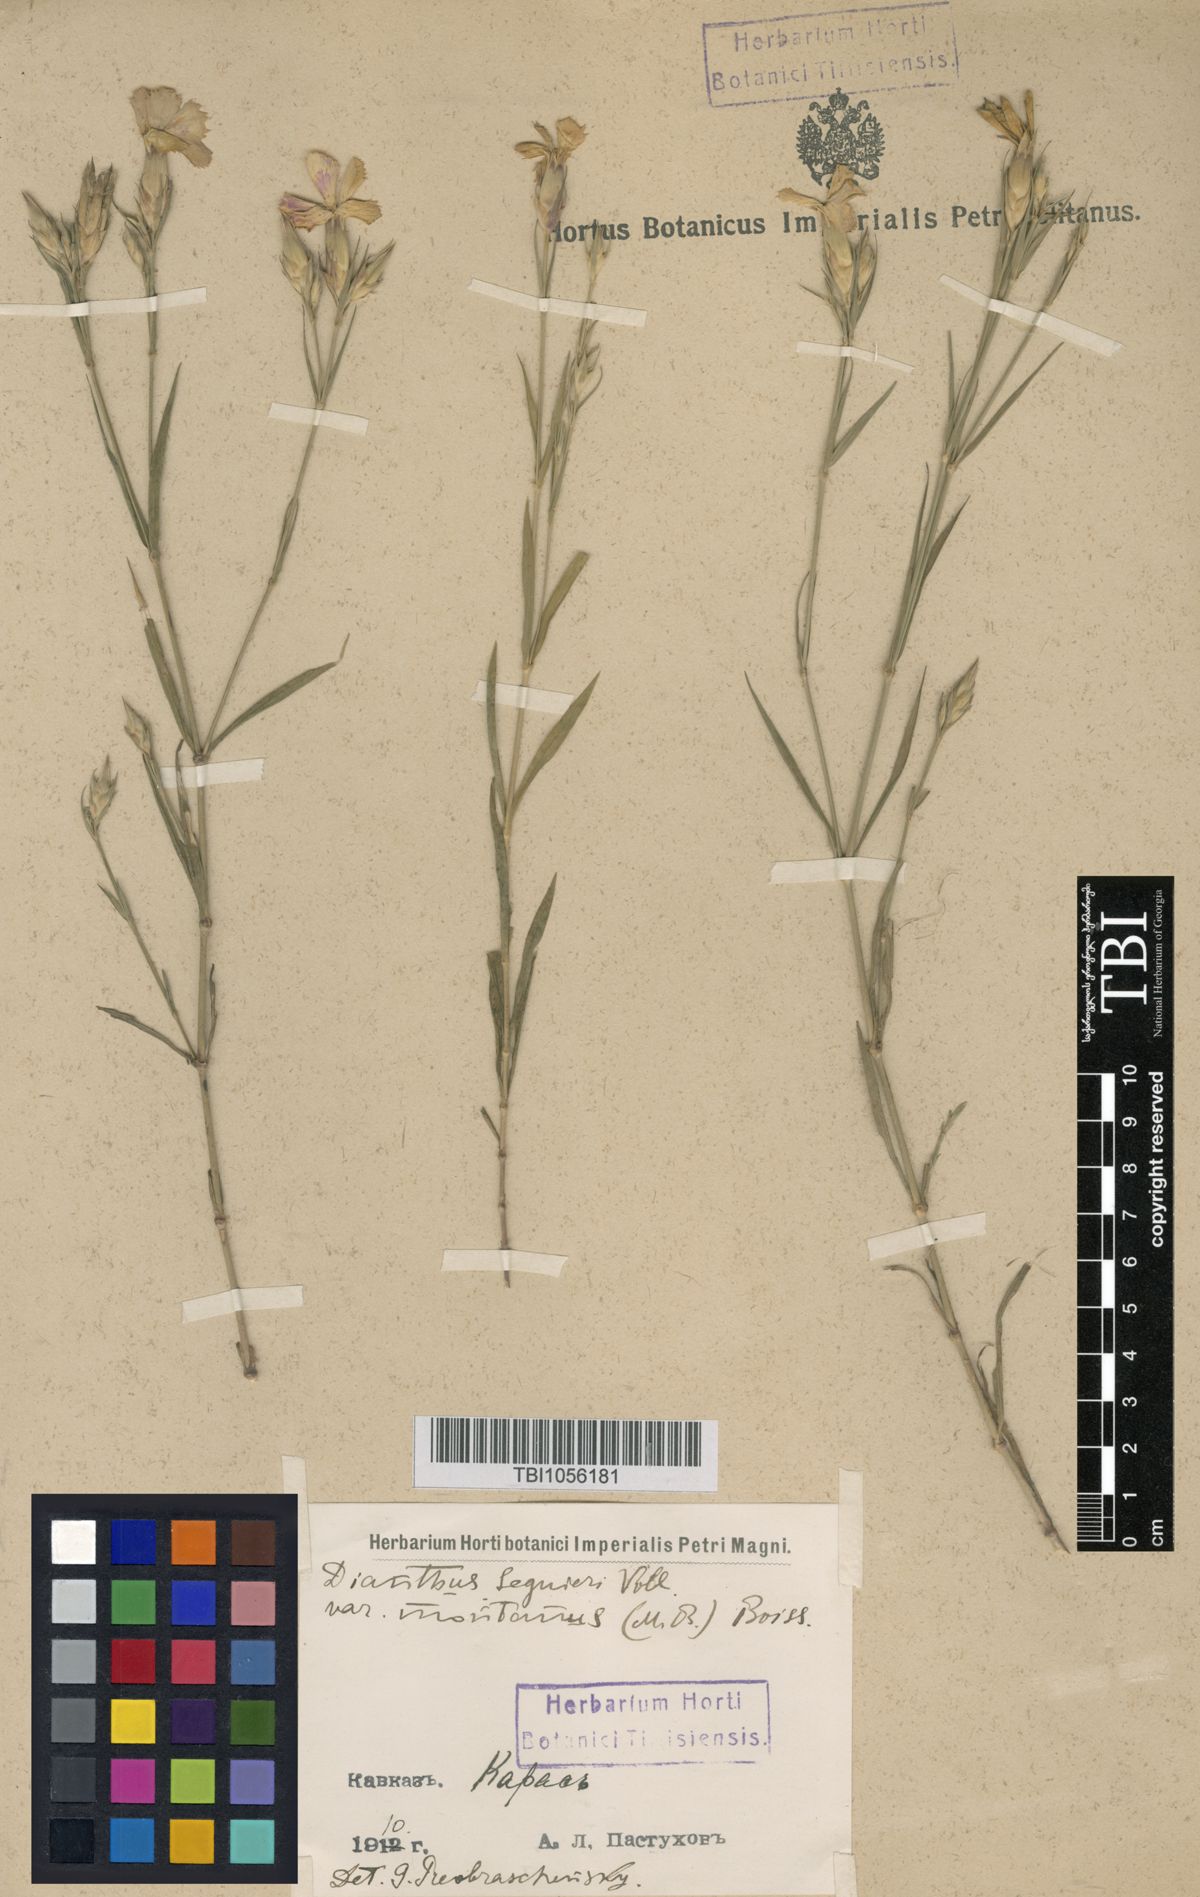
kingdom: Plantae
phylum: Tracheophyta
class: Magnoliopsida
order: Caryophyllales
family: Caryophyllaceae
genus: Dianthus
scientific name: Dianthus caucaseus
